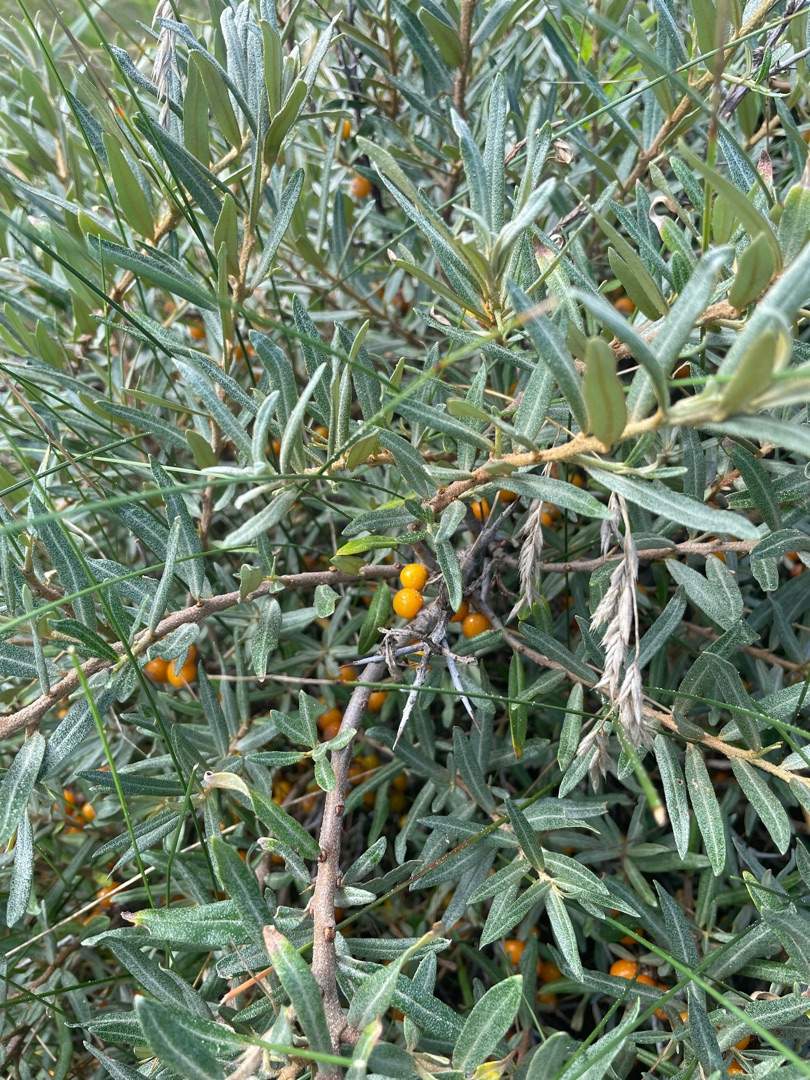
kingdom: Plantae
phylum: Tracheophyta
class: Magnoliopsida
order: Rosales
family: Elaeagnaceae
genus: Hippophae
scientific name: Hippophae rhamnoides
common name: Havtorn
